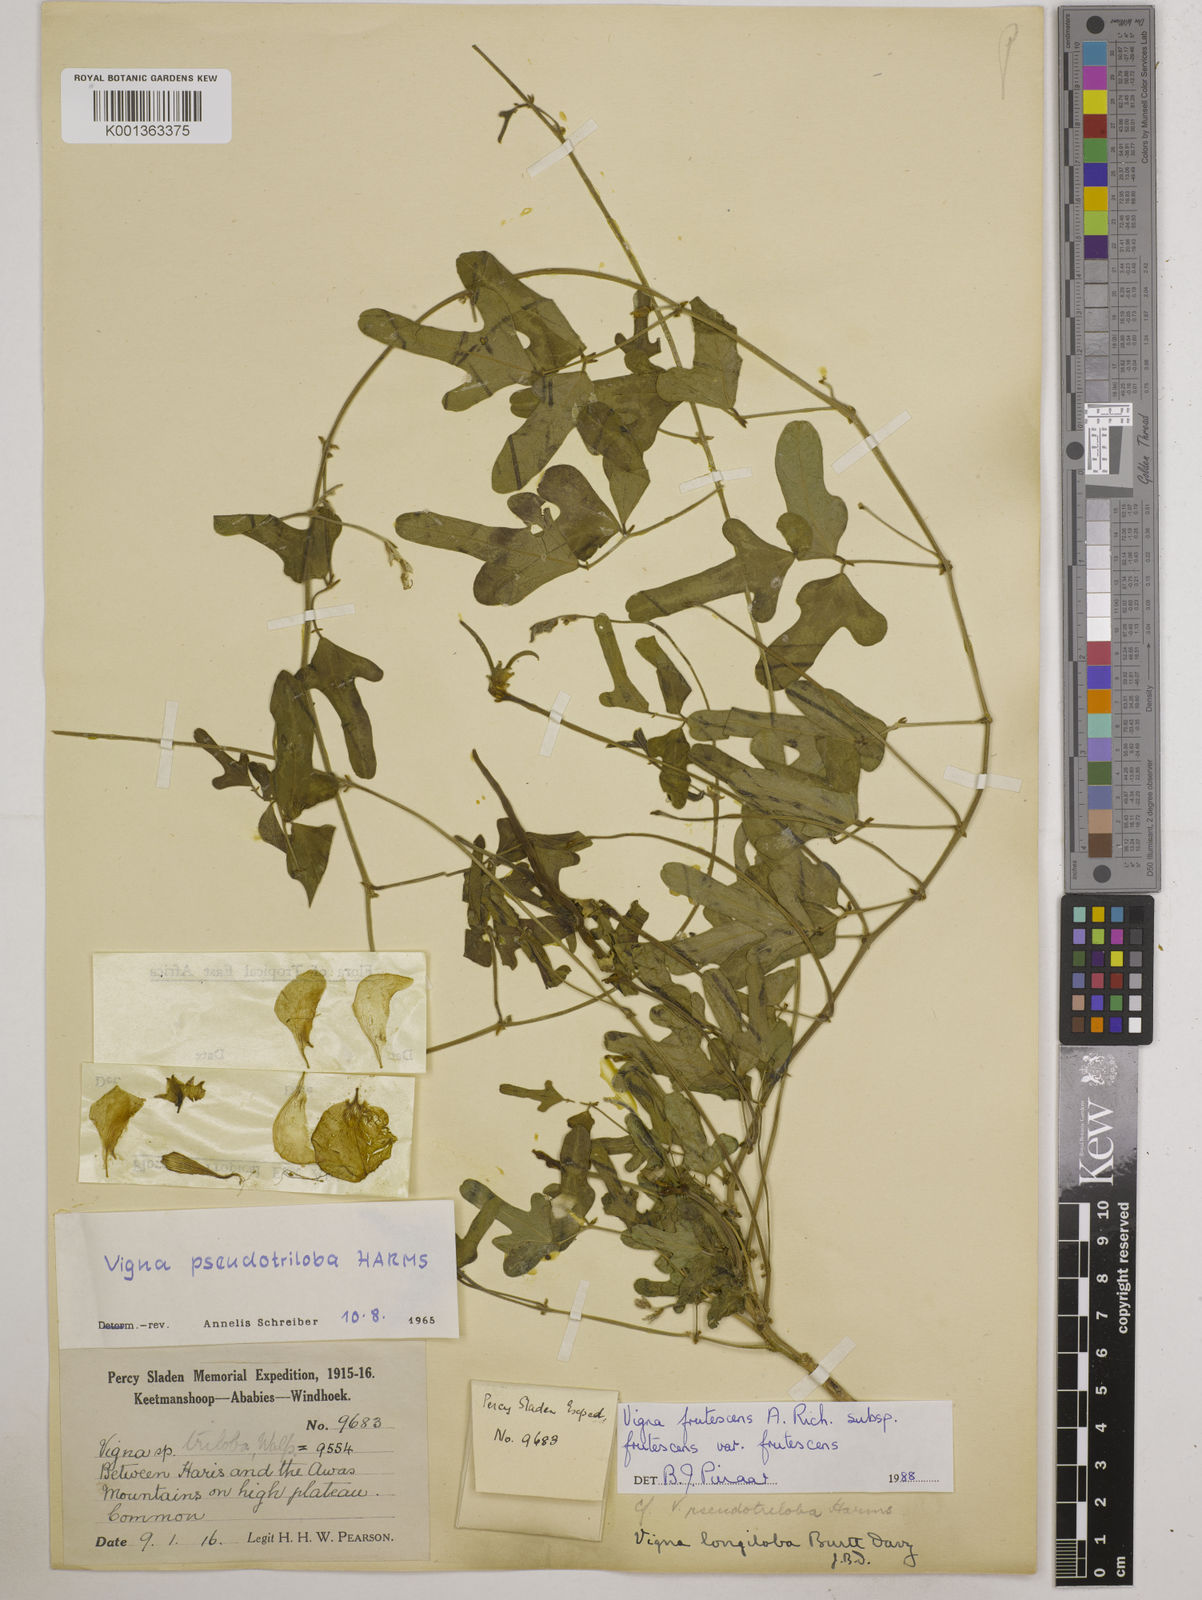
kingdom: Plantae
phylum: Tracheophyta
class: Magnoliopsida
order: Fabales
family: Fabaceae
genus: Vigna
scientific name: Vigna frutescens
